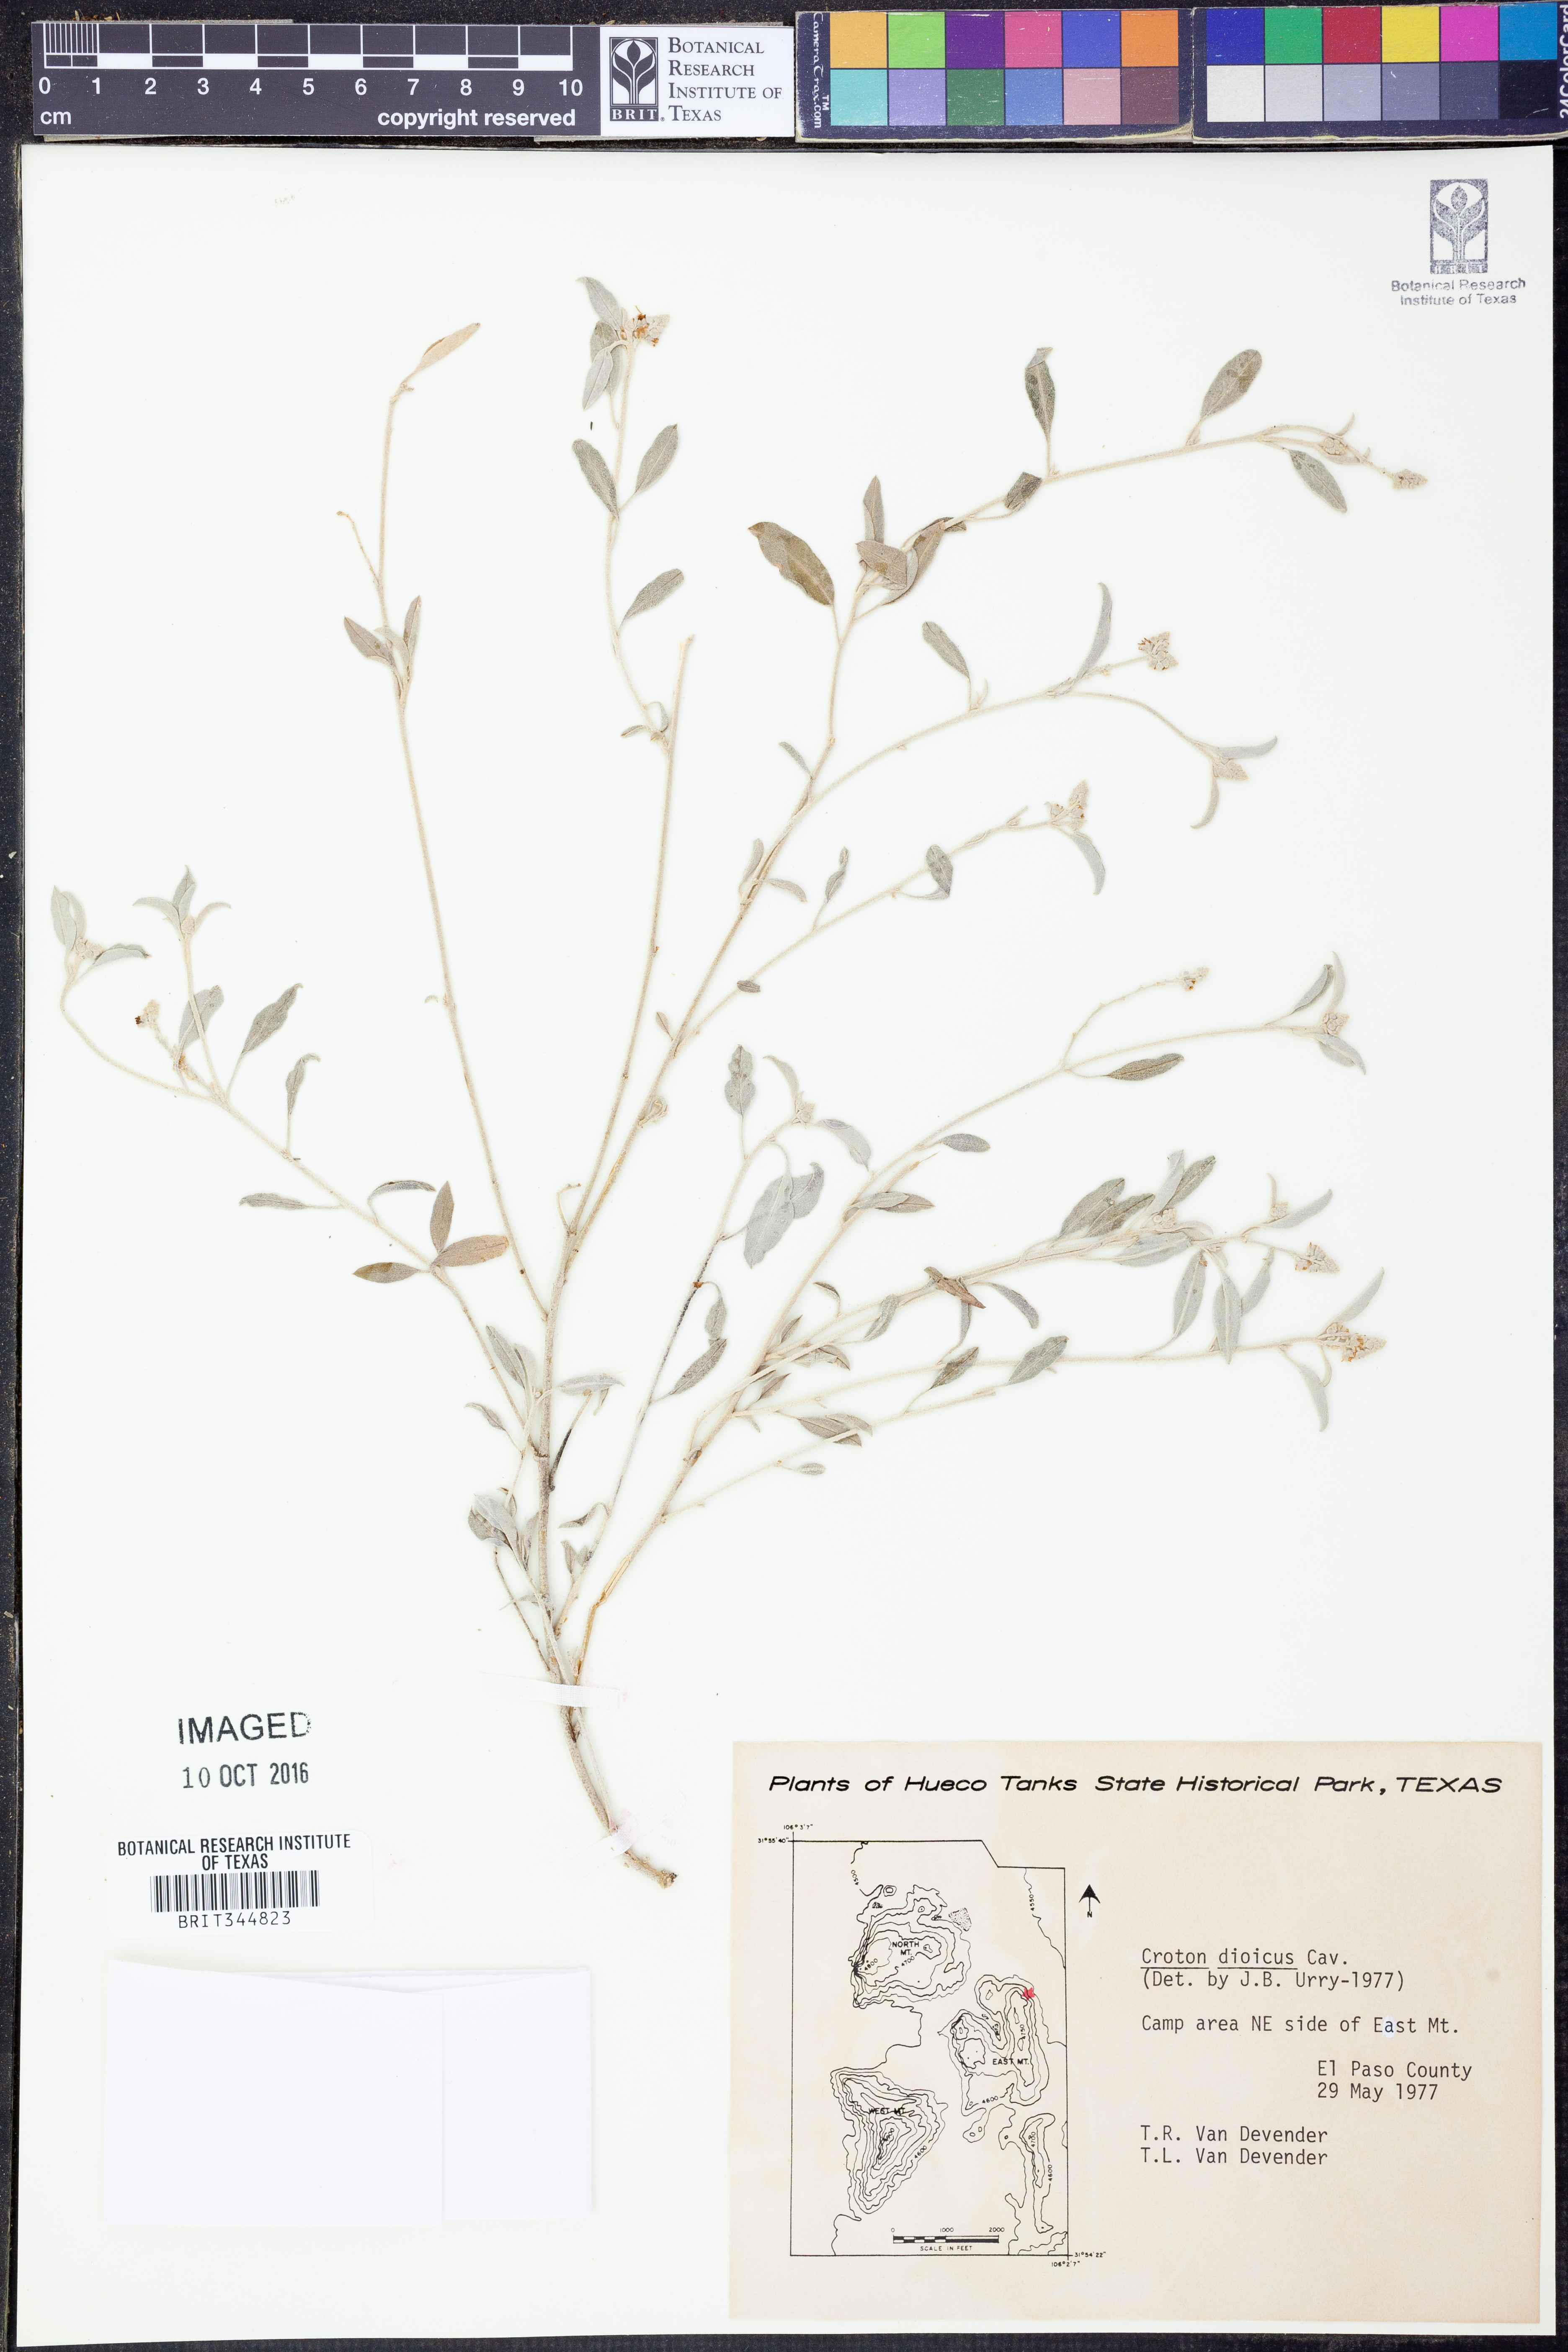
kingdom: Plantae
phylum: Tracheophyta
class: Magnoliopsida
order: Malpighiales
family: Euphorbiaceae
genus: Croton
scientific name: Croton dioicus
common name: Grassland croton
